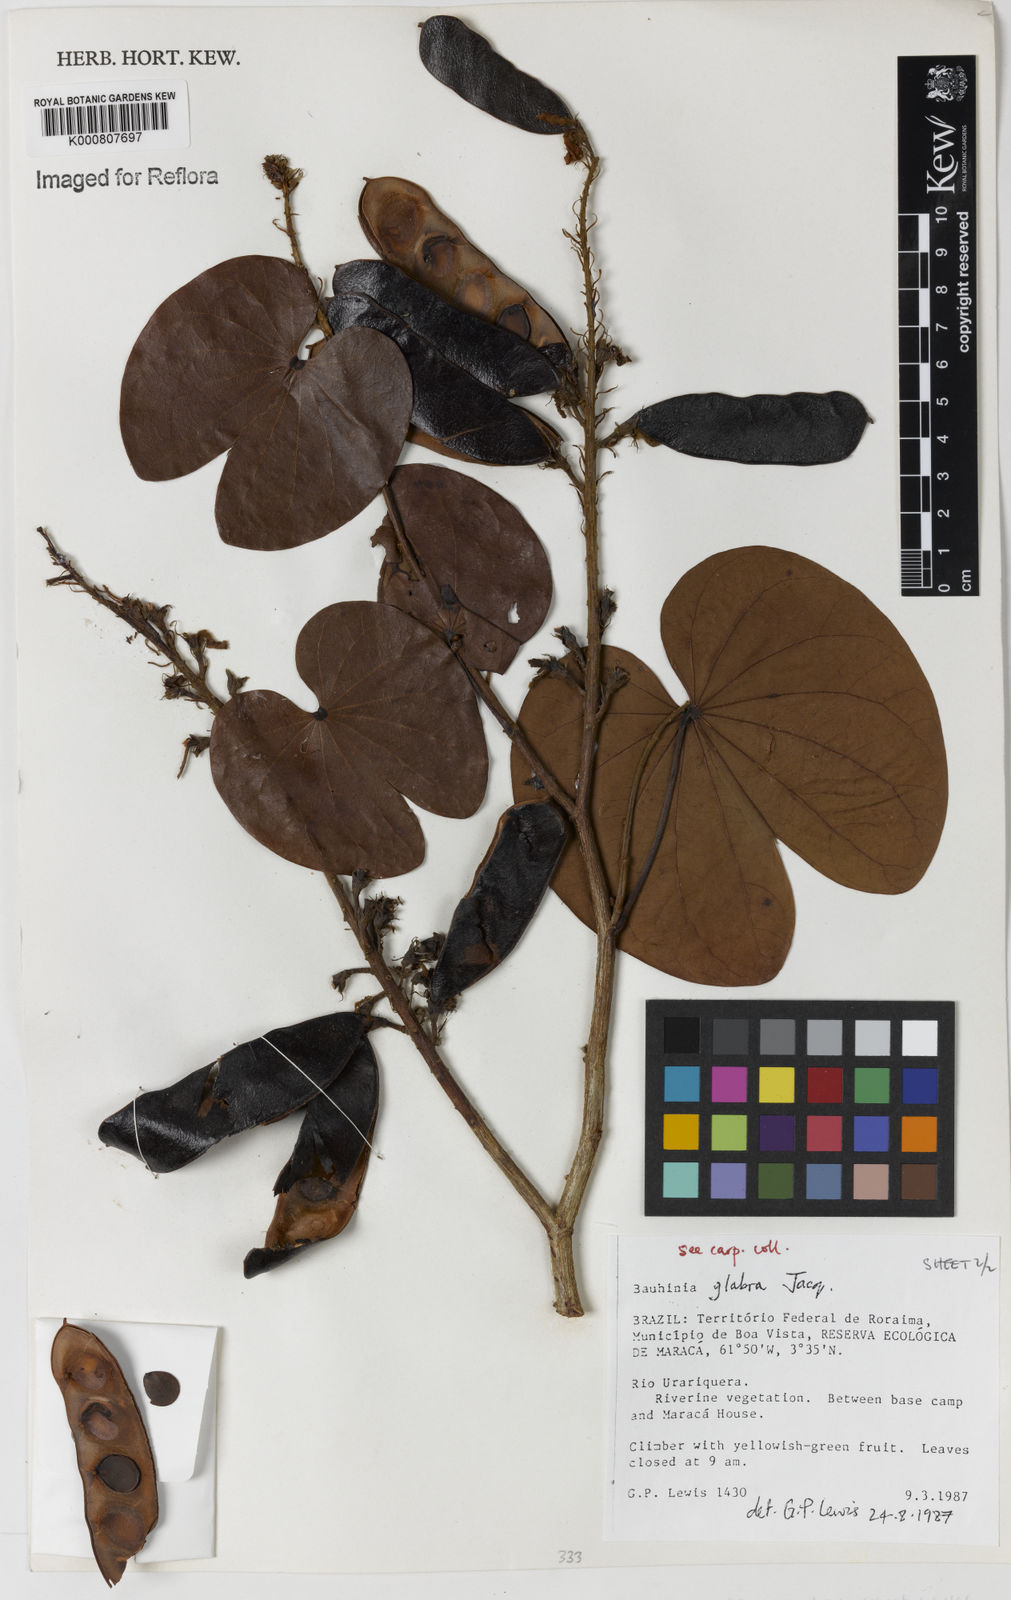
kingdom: Plantae
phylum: Tracheophyta
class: Magnoliopsida
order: Fabales
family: Fabaceae
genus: Schnella
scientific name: Schnella glabra
